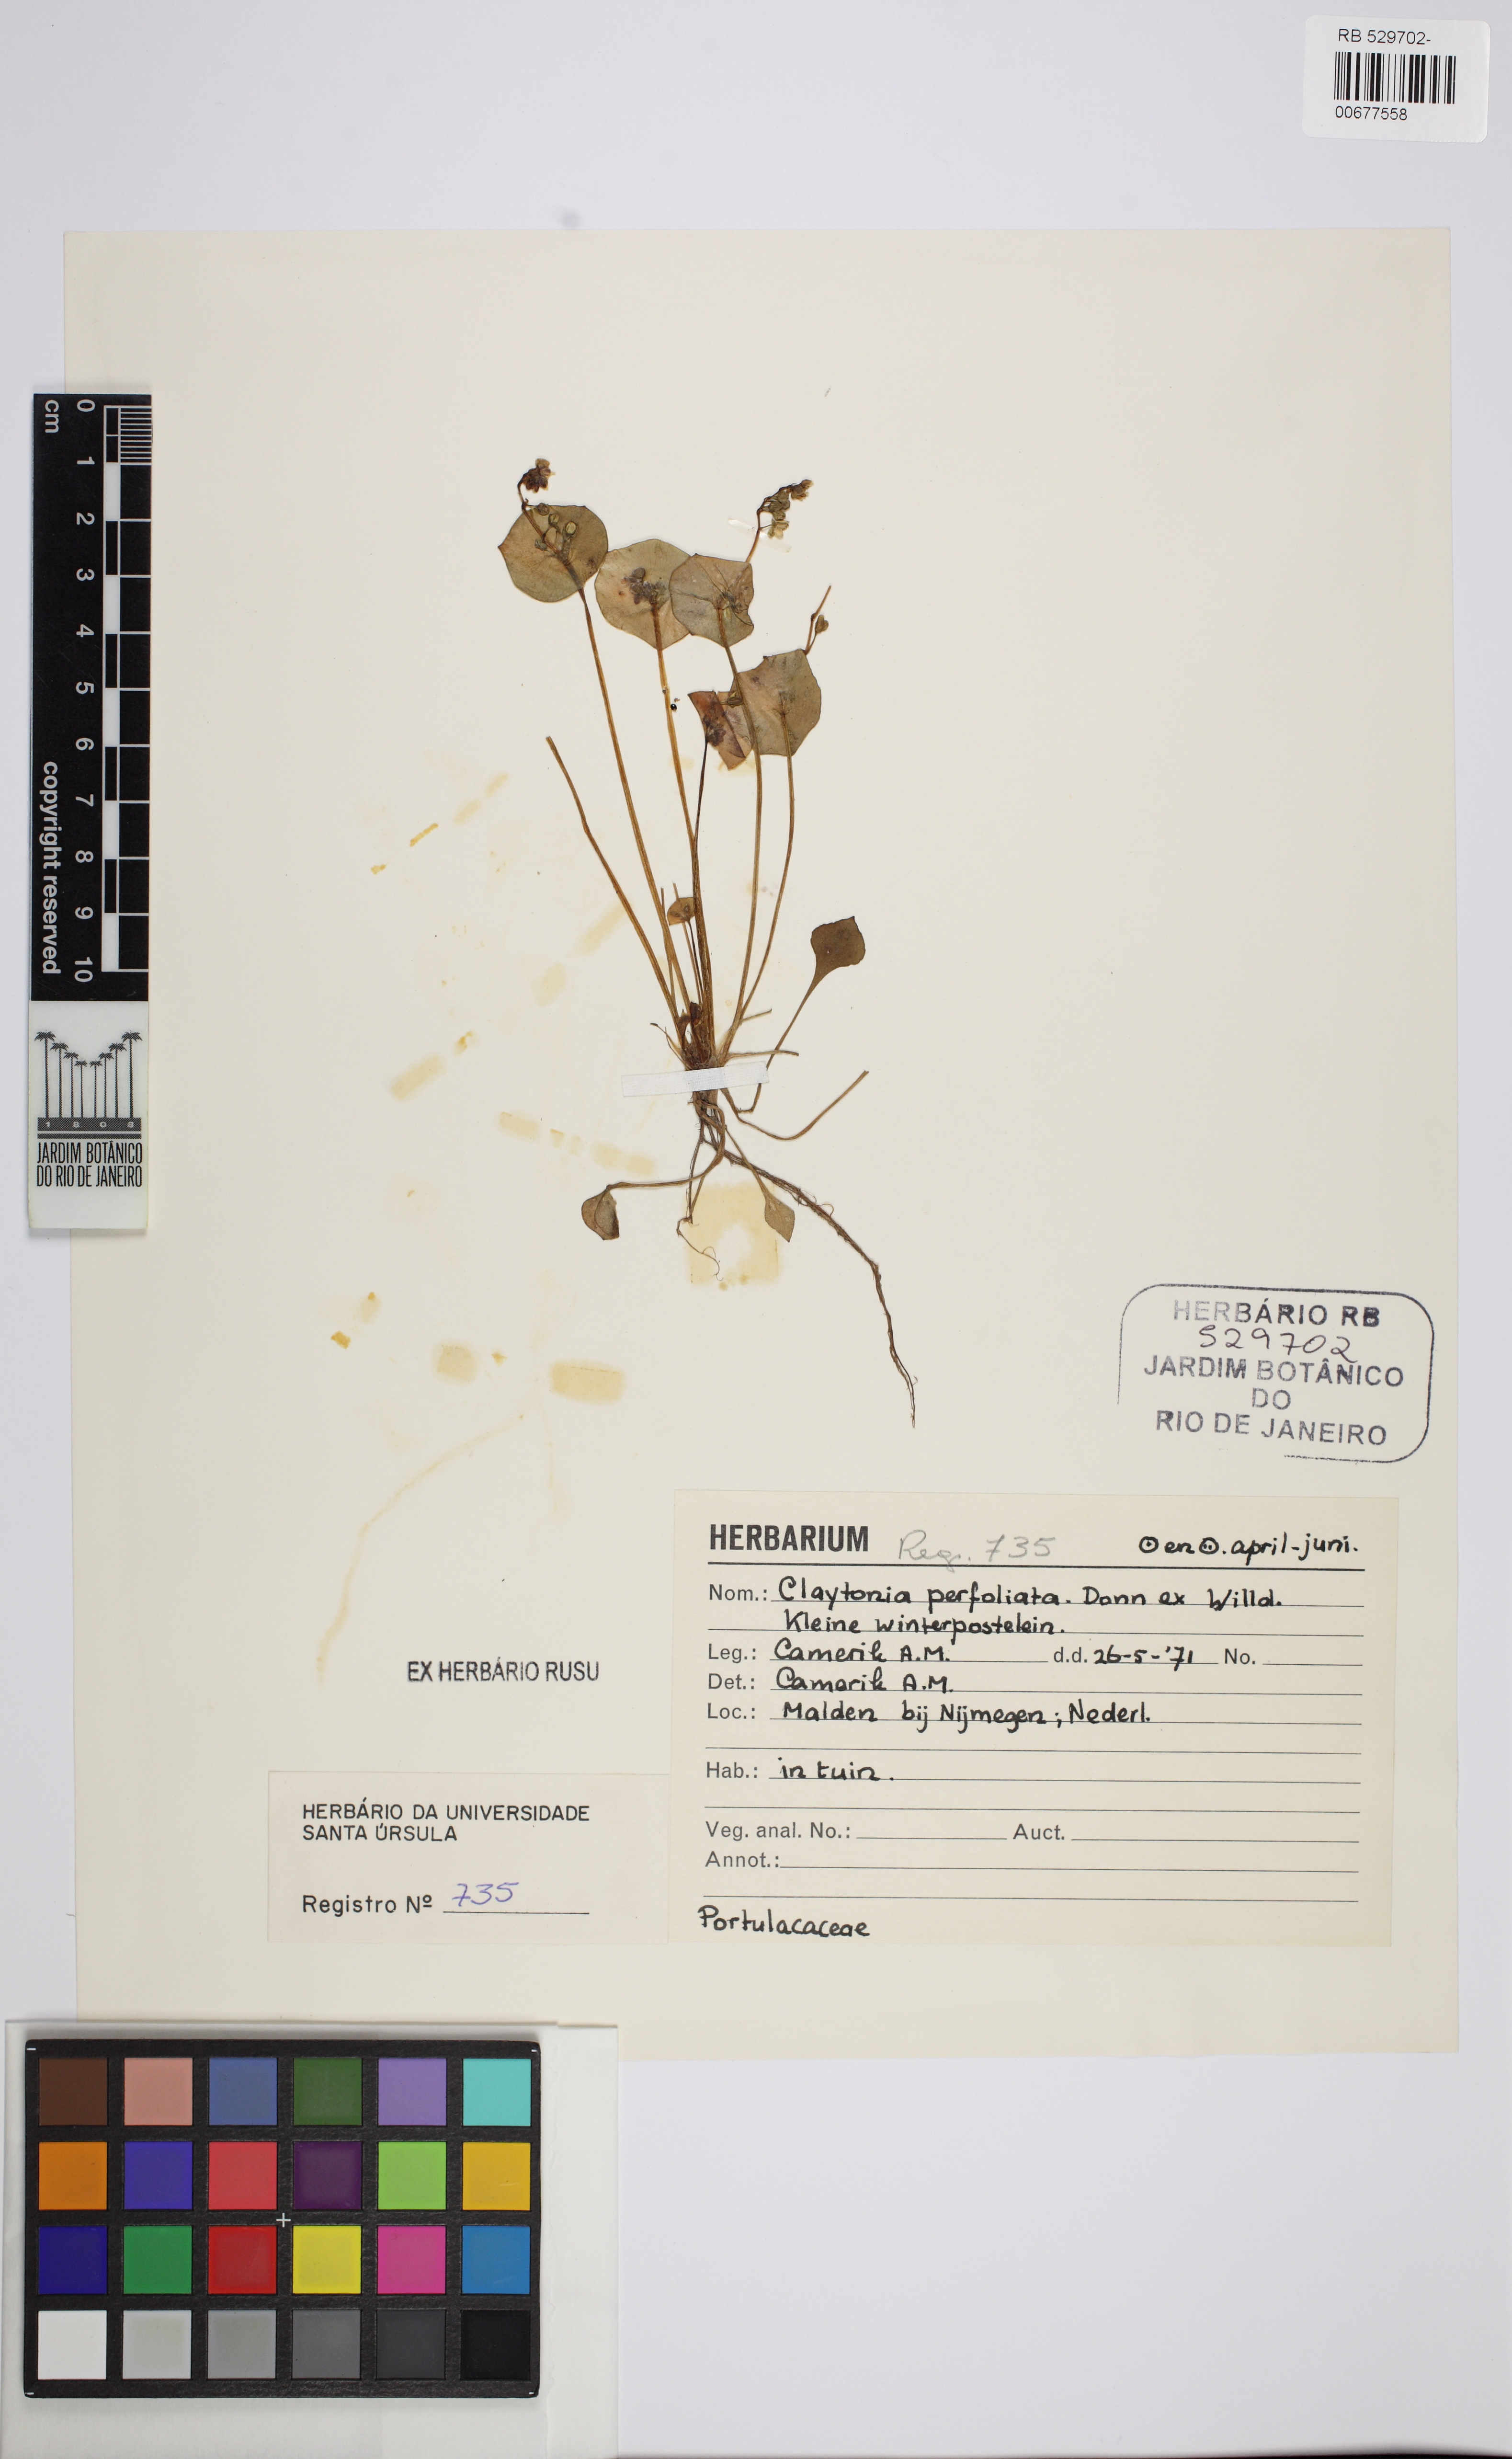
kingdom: Plantae
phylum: Tracheophyta
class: Magnoliopsida
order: Caryophyllales
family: Montiaceae
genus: Claytonia
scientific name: Claytonia perfoliata
